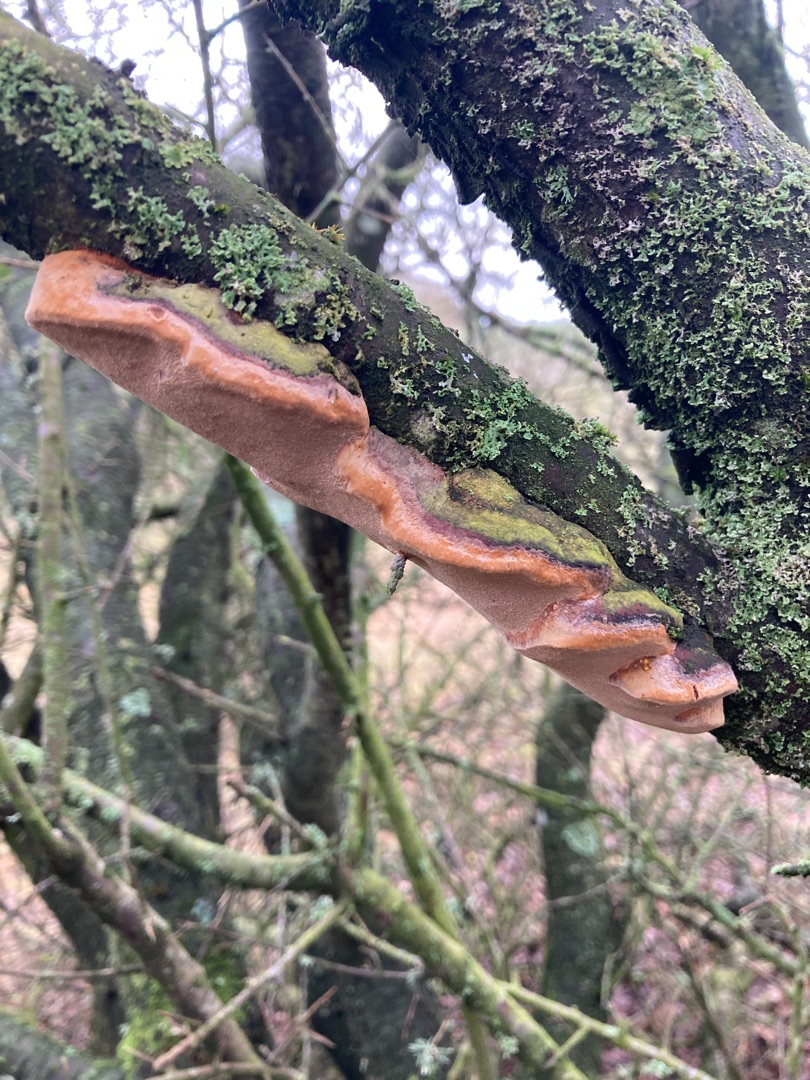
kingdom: Fungi
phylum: Basidiomycota
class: Agaricomycetes
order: Hymenochaetales
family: Hymenochaetaceae
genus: Phellinus
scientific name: Phellinus pomaceus
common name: Blomme-ildporesvamp
